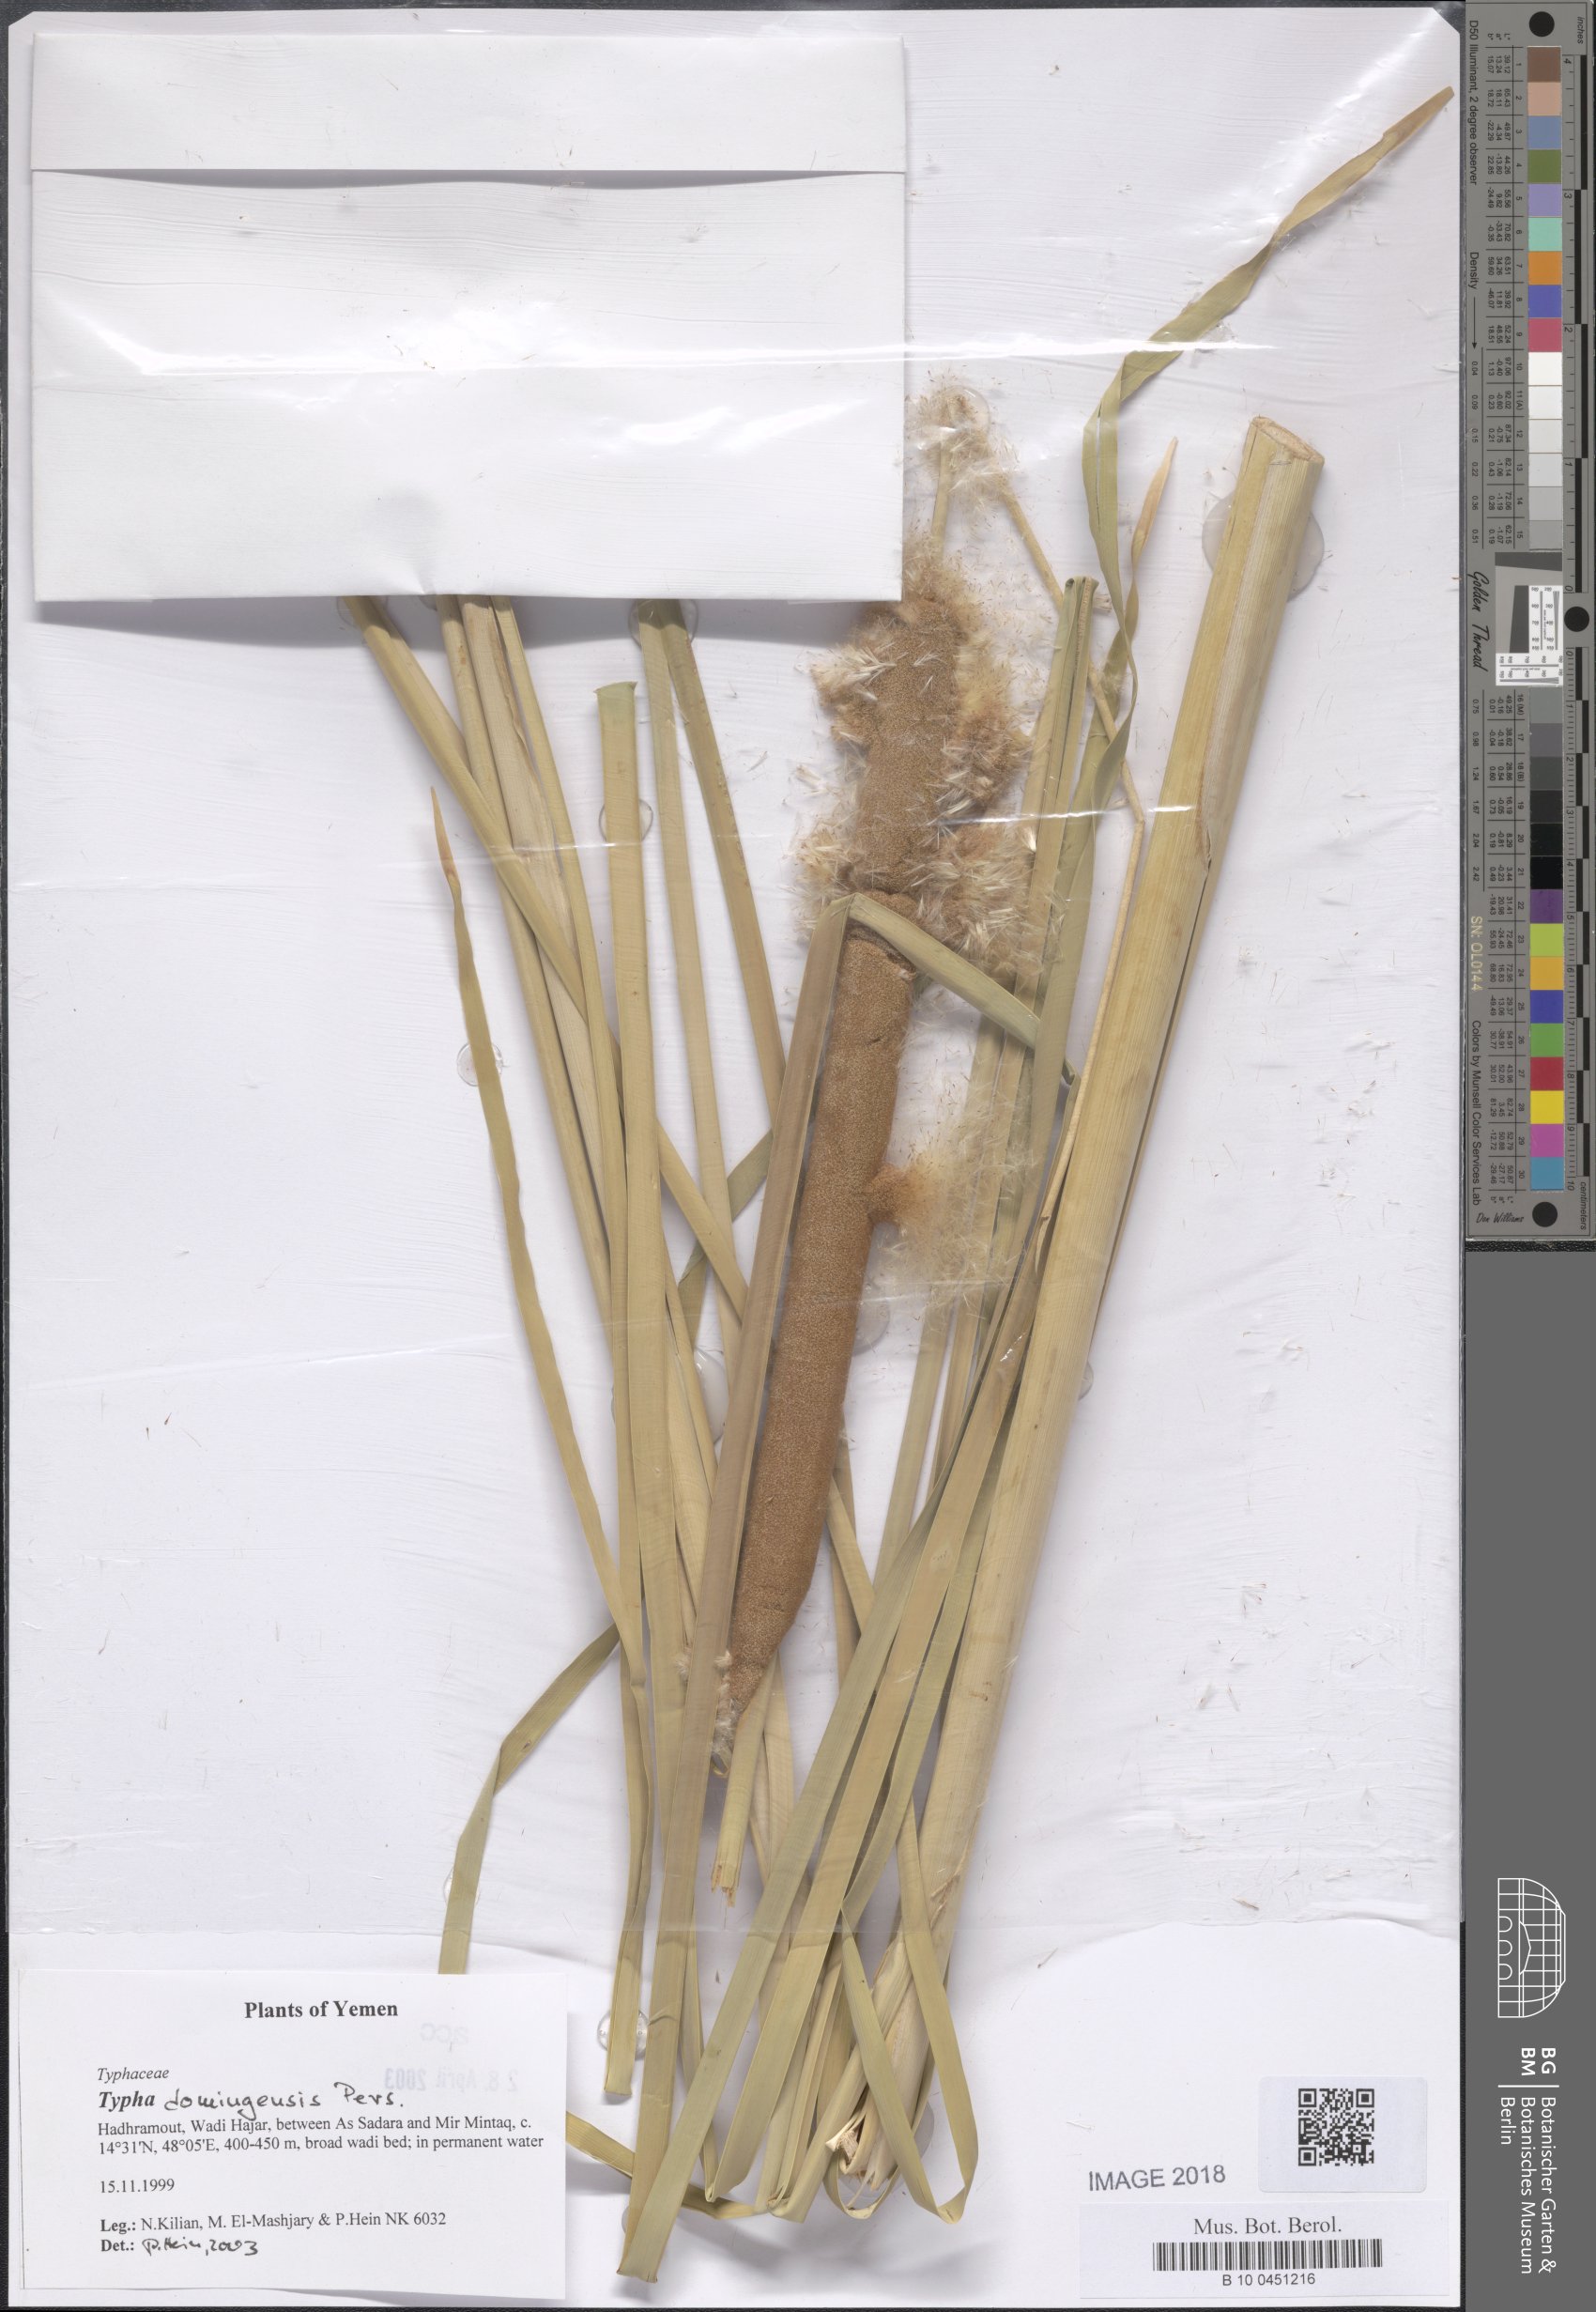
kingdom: Plantae
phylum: Tracheophyta
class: Liliopsida
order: Poales
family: Typhaceae
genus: Typha
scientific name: Typha domingensis
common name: Southern cattail
